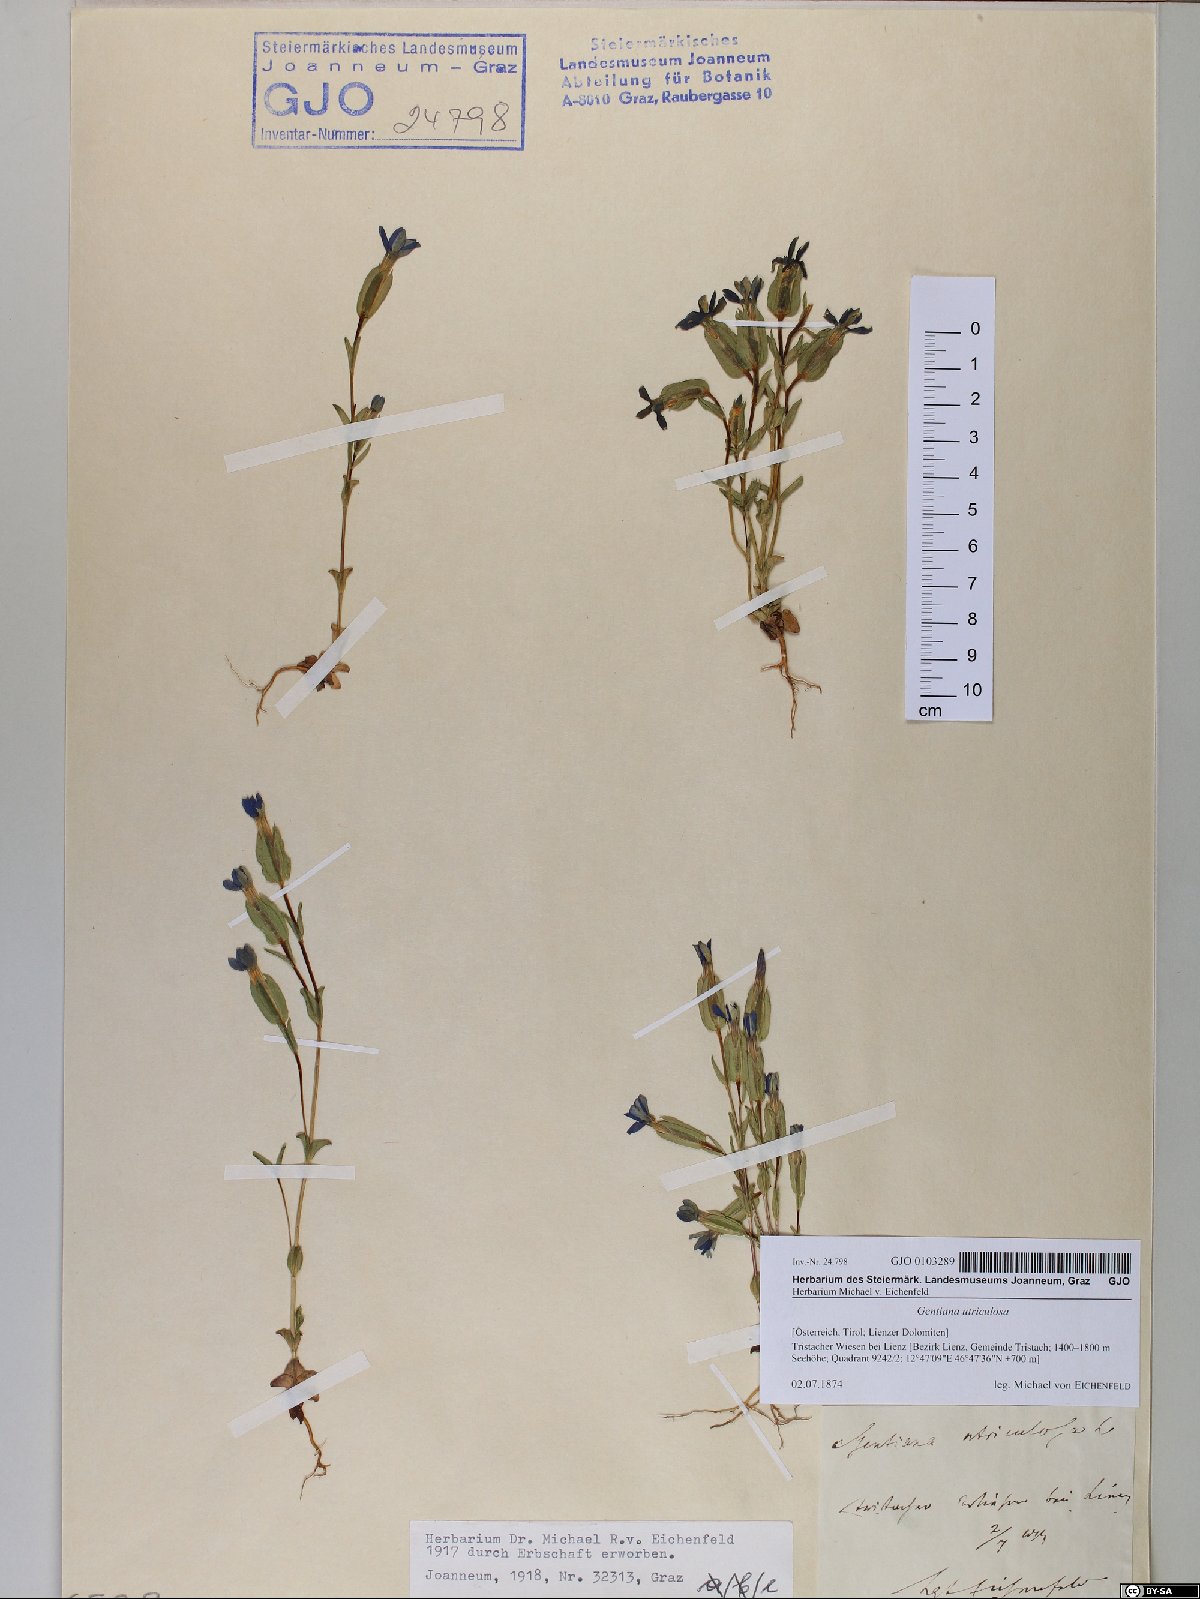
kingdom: Plantae
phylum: Tracheophyta
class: Magnoliopsida
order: Gentianales
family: Gentianaceae
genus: Gentiana
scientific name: Gentiana utriculosa
